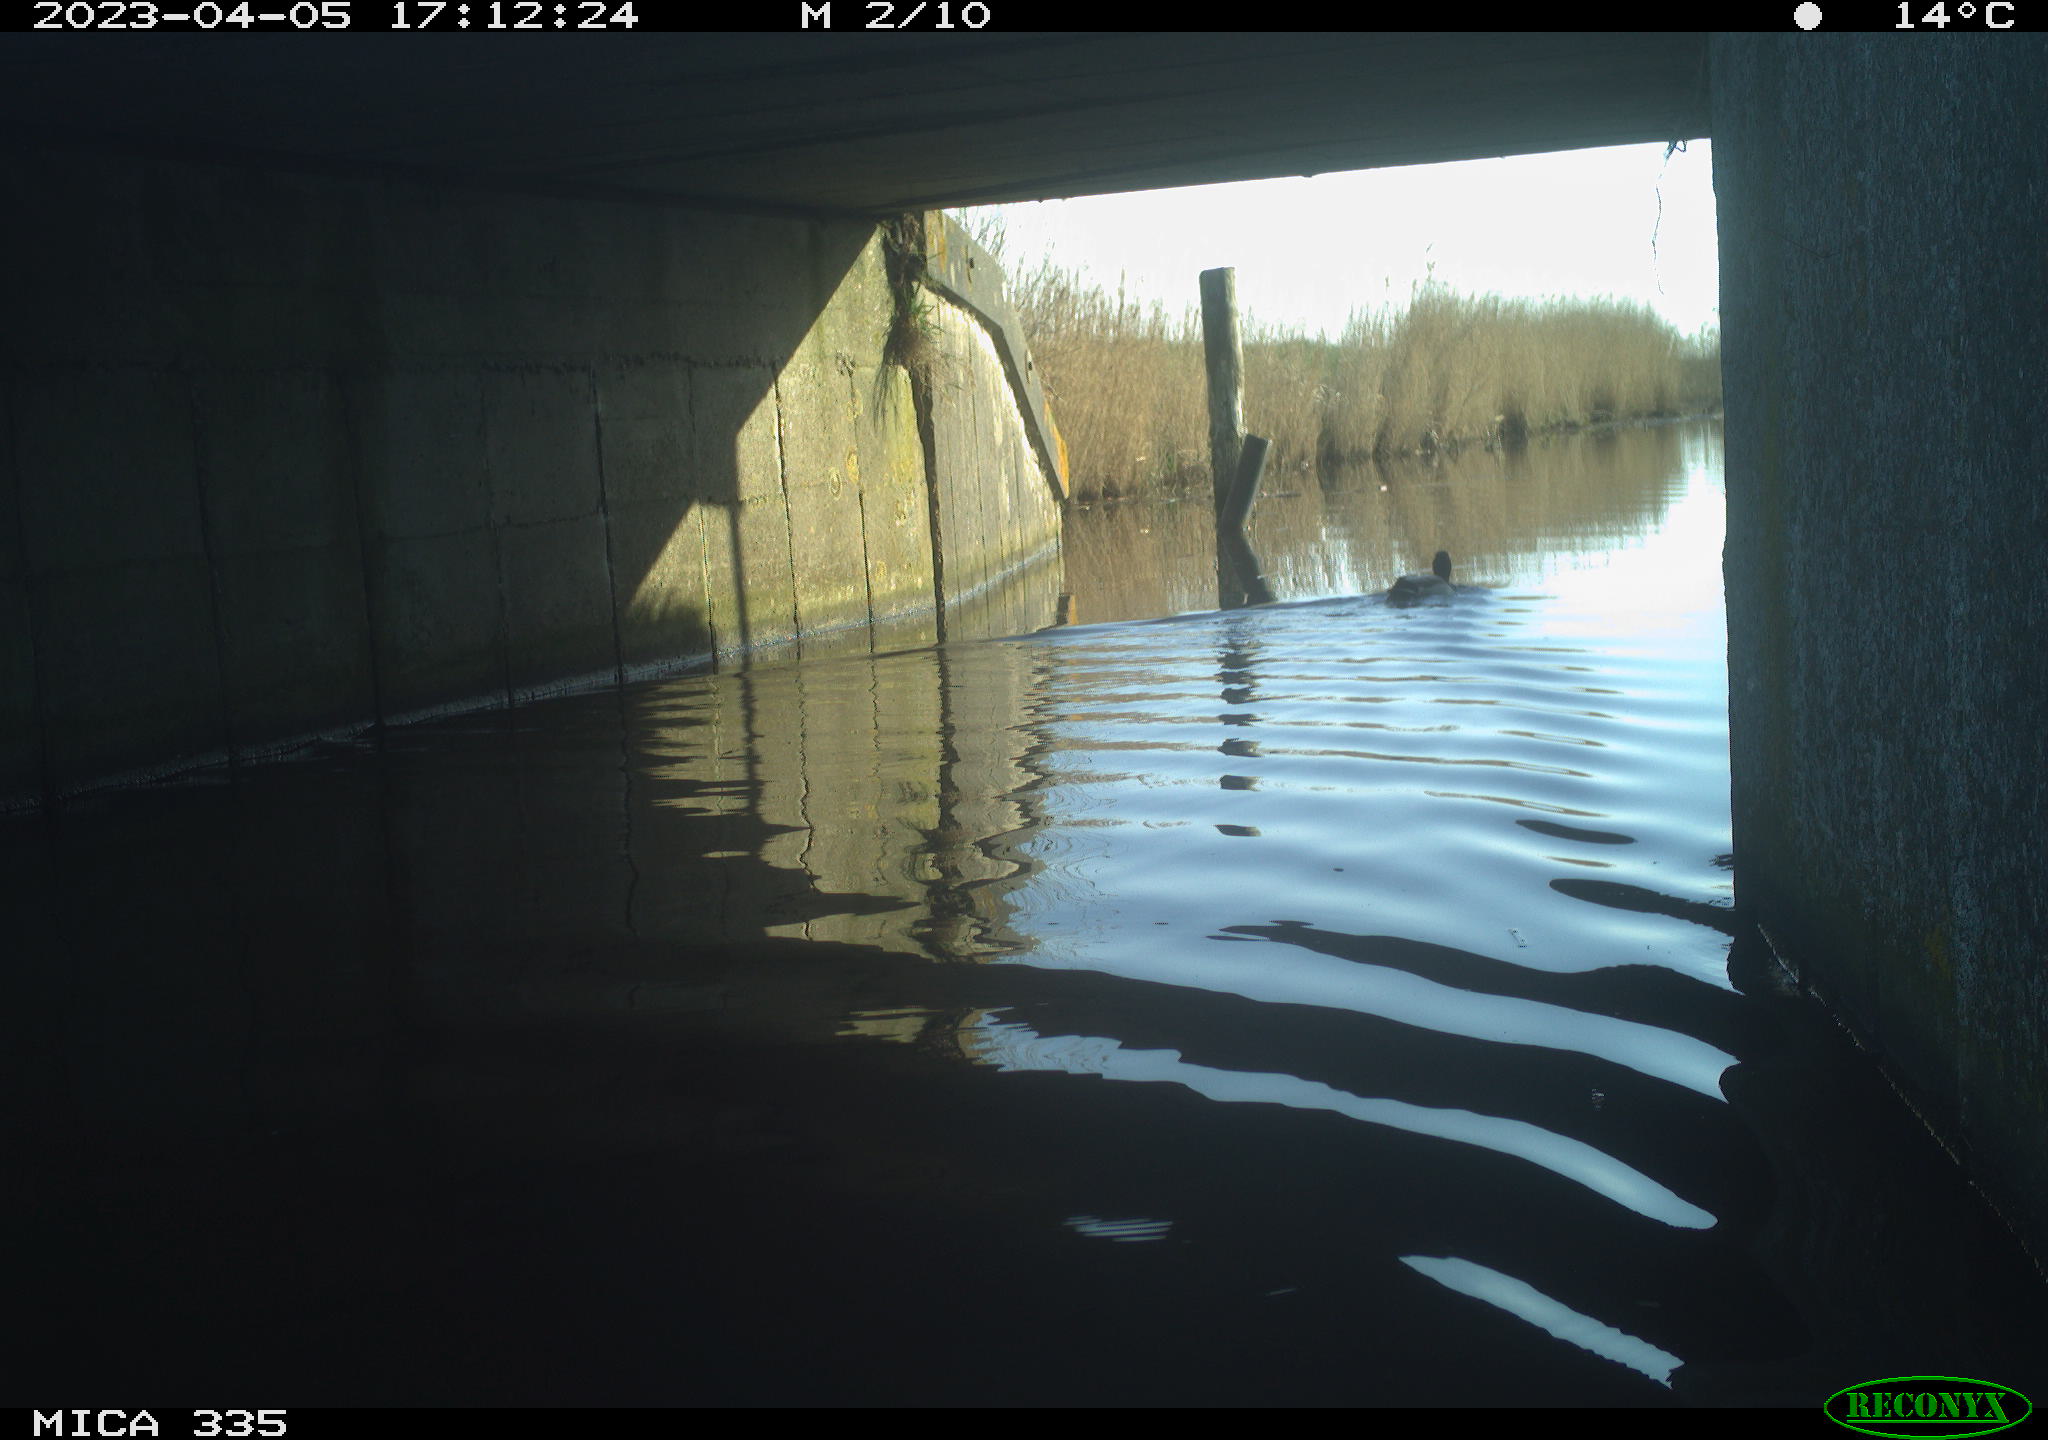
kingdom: Animalia
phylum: Chordata
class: Aves
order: Anseriformes
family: Anatidae
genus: Anas
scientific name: Anas
